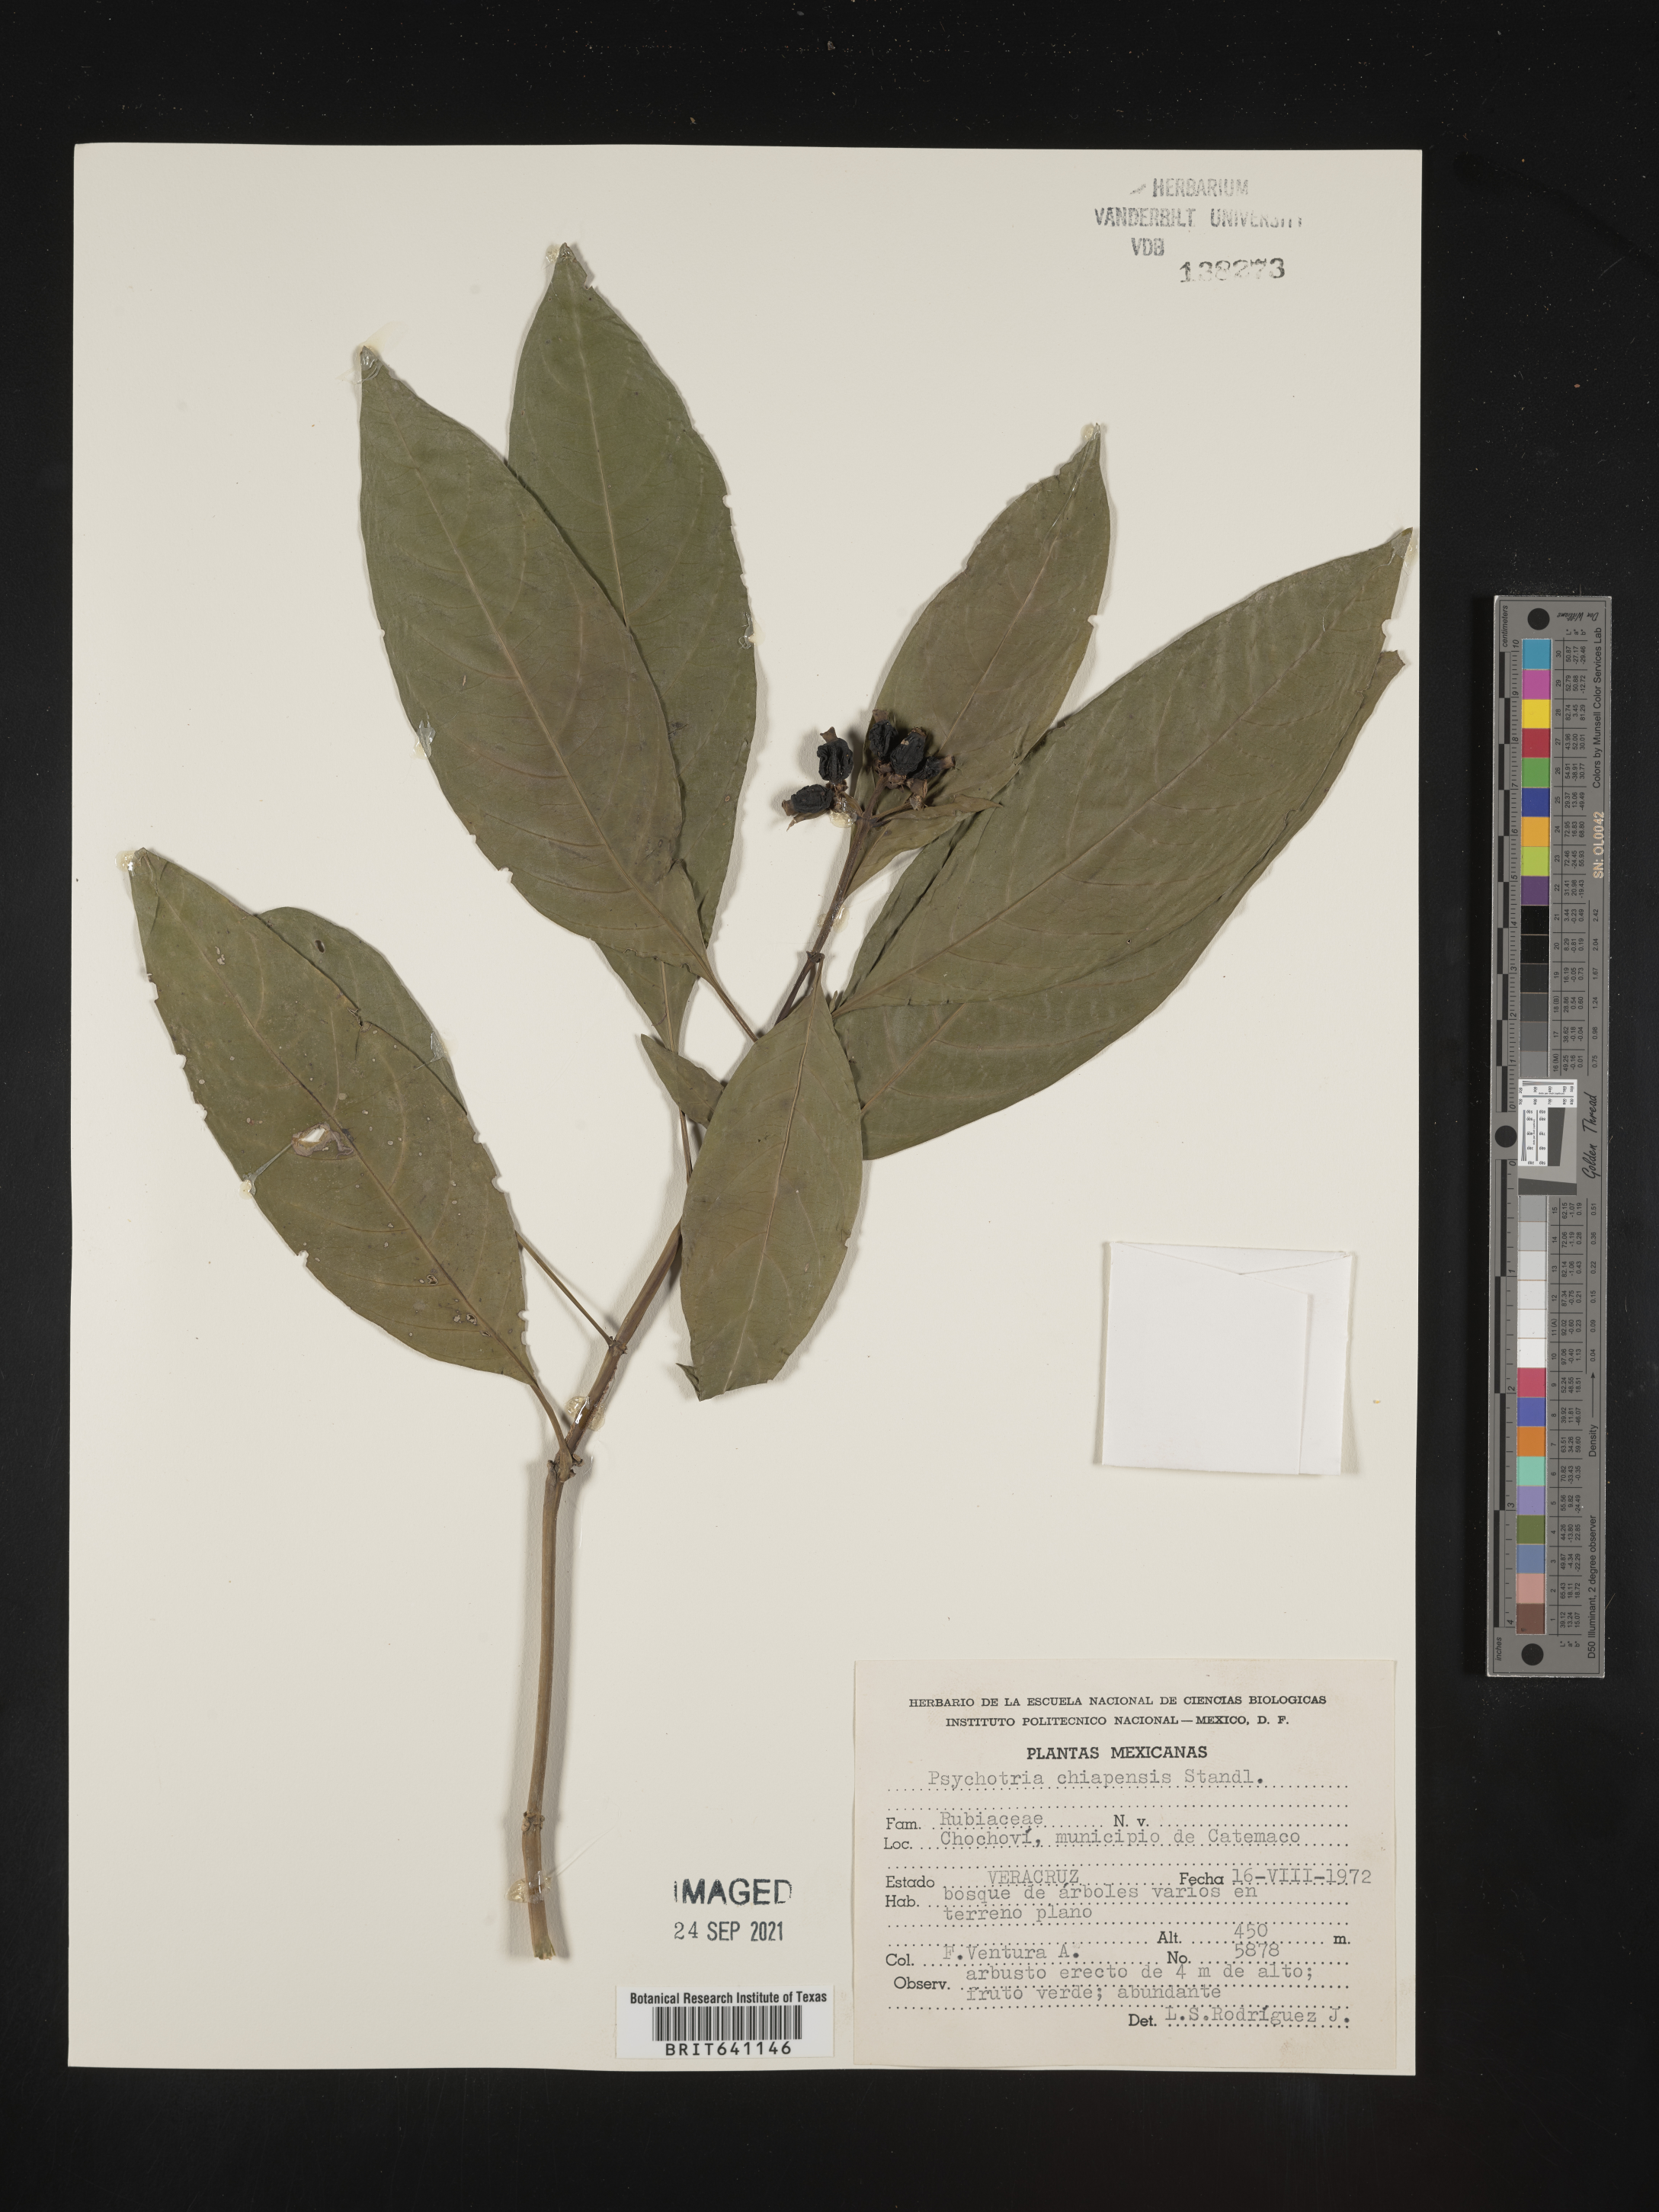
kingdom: Plantae
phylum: Tracheophyta
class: Magnoliopsida
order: Gentianales
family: Rubiaceae
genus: Psychotria
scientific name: Psychotria
